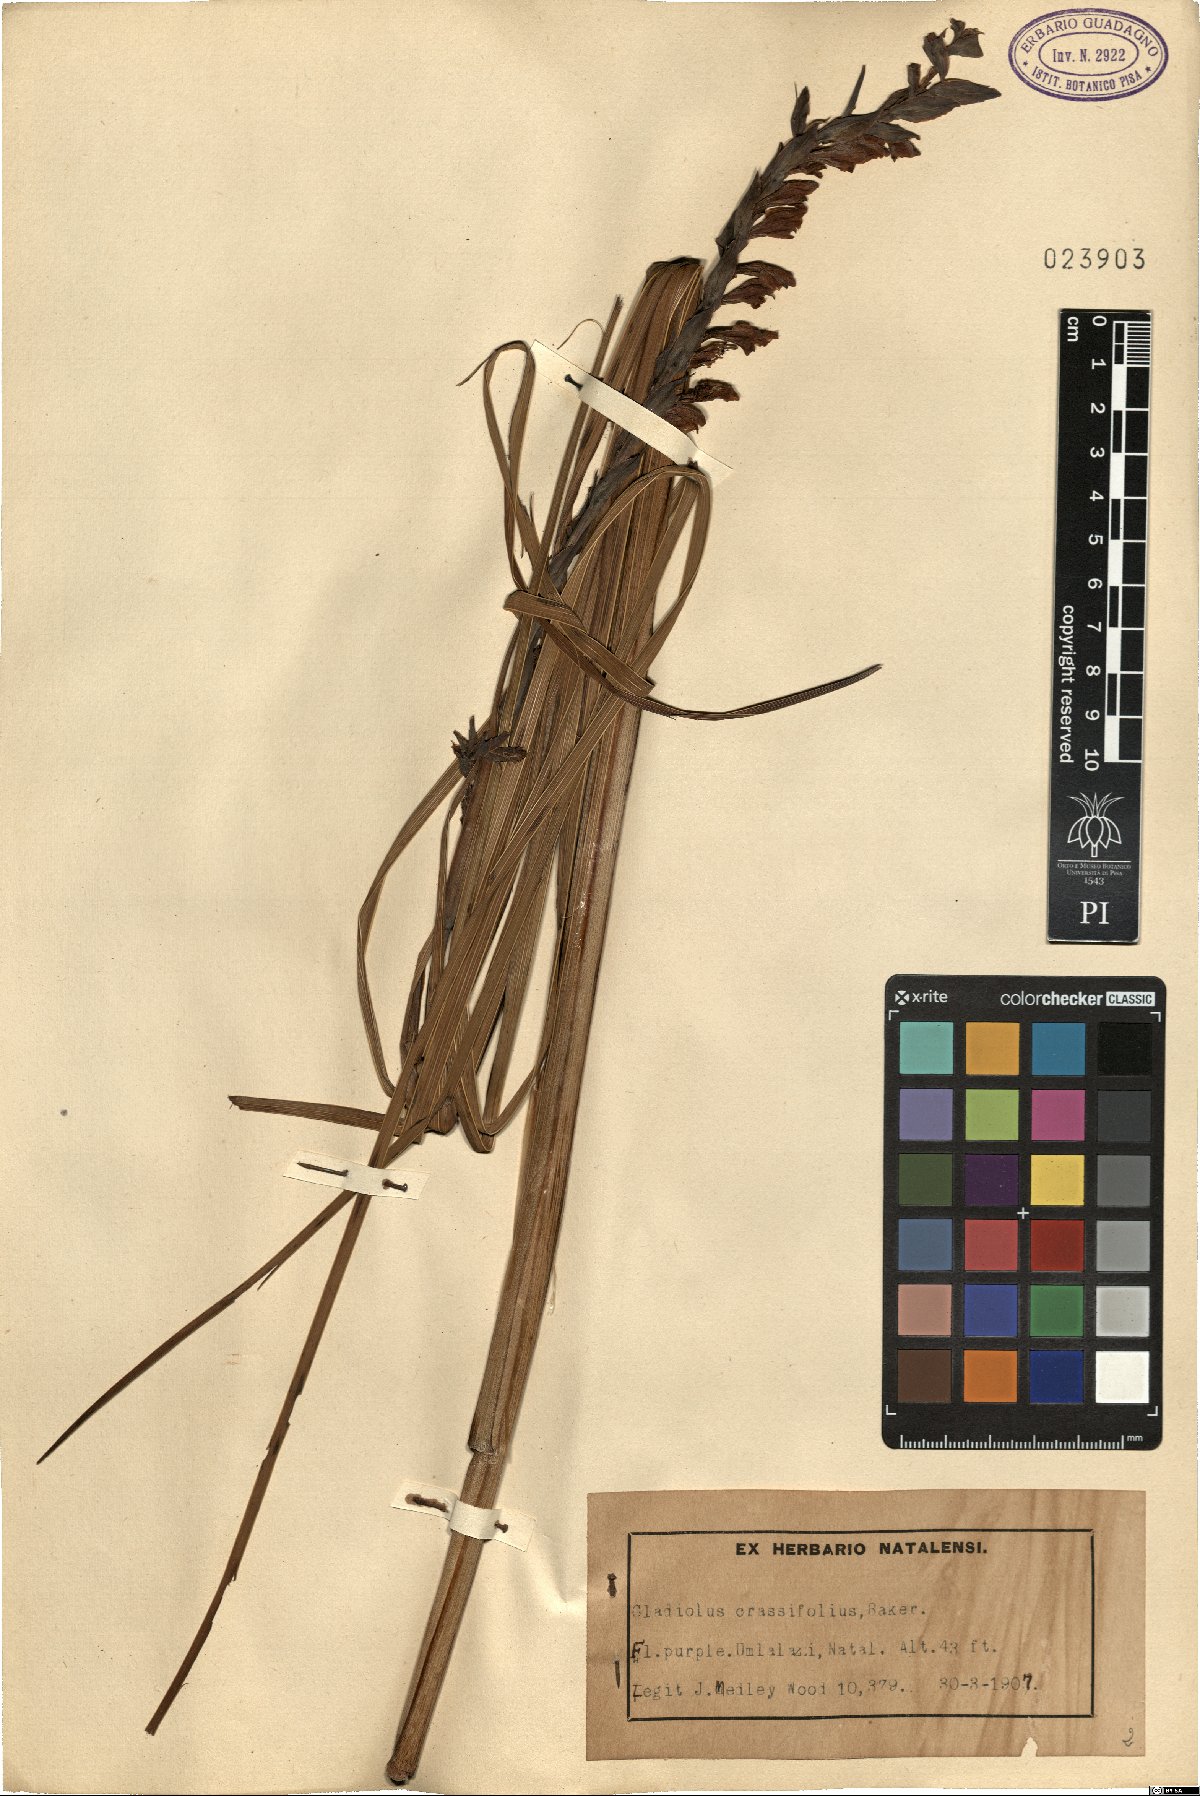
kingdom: Plantae
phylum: Tracheophyta
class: Liliopsida
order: Asparagales
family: Iridaceae
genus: Gladiolus
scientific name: Gladiolus crassifolius
